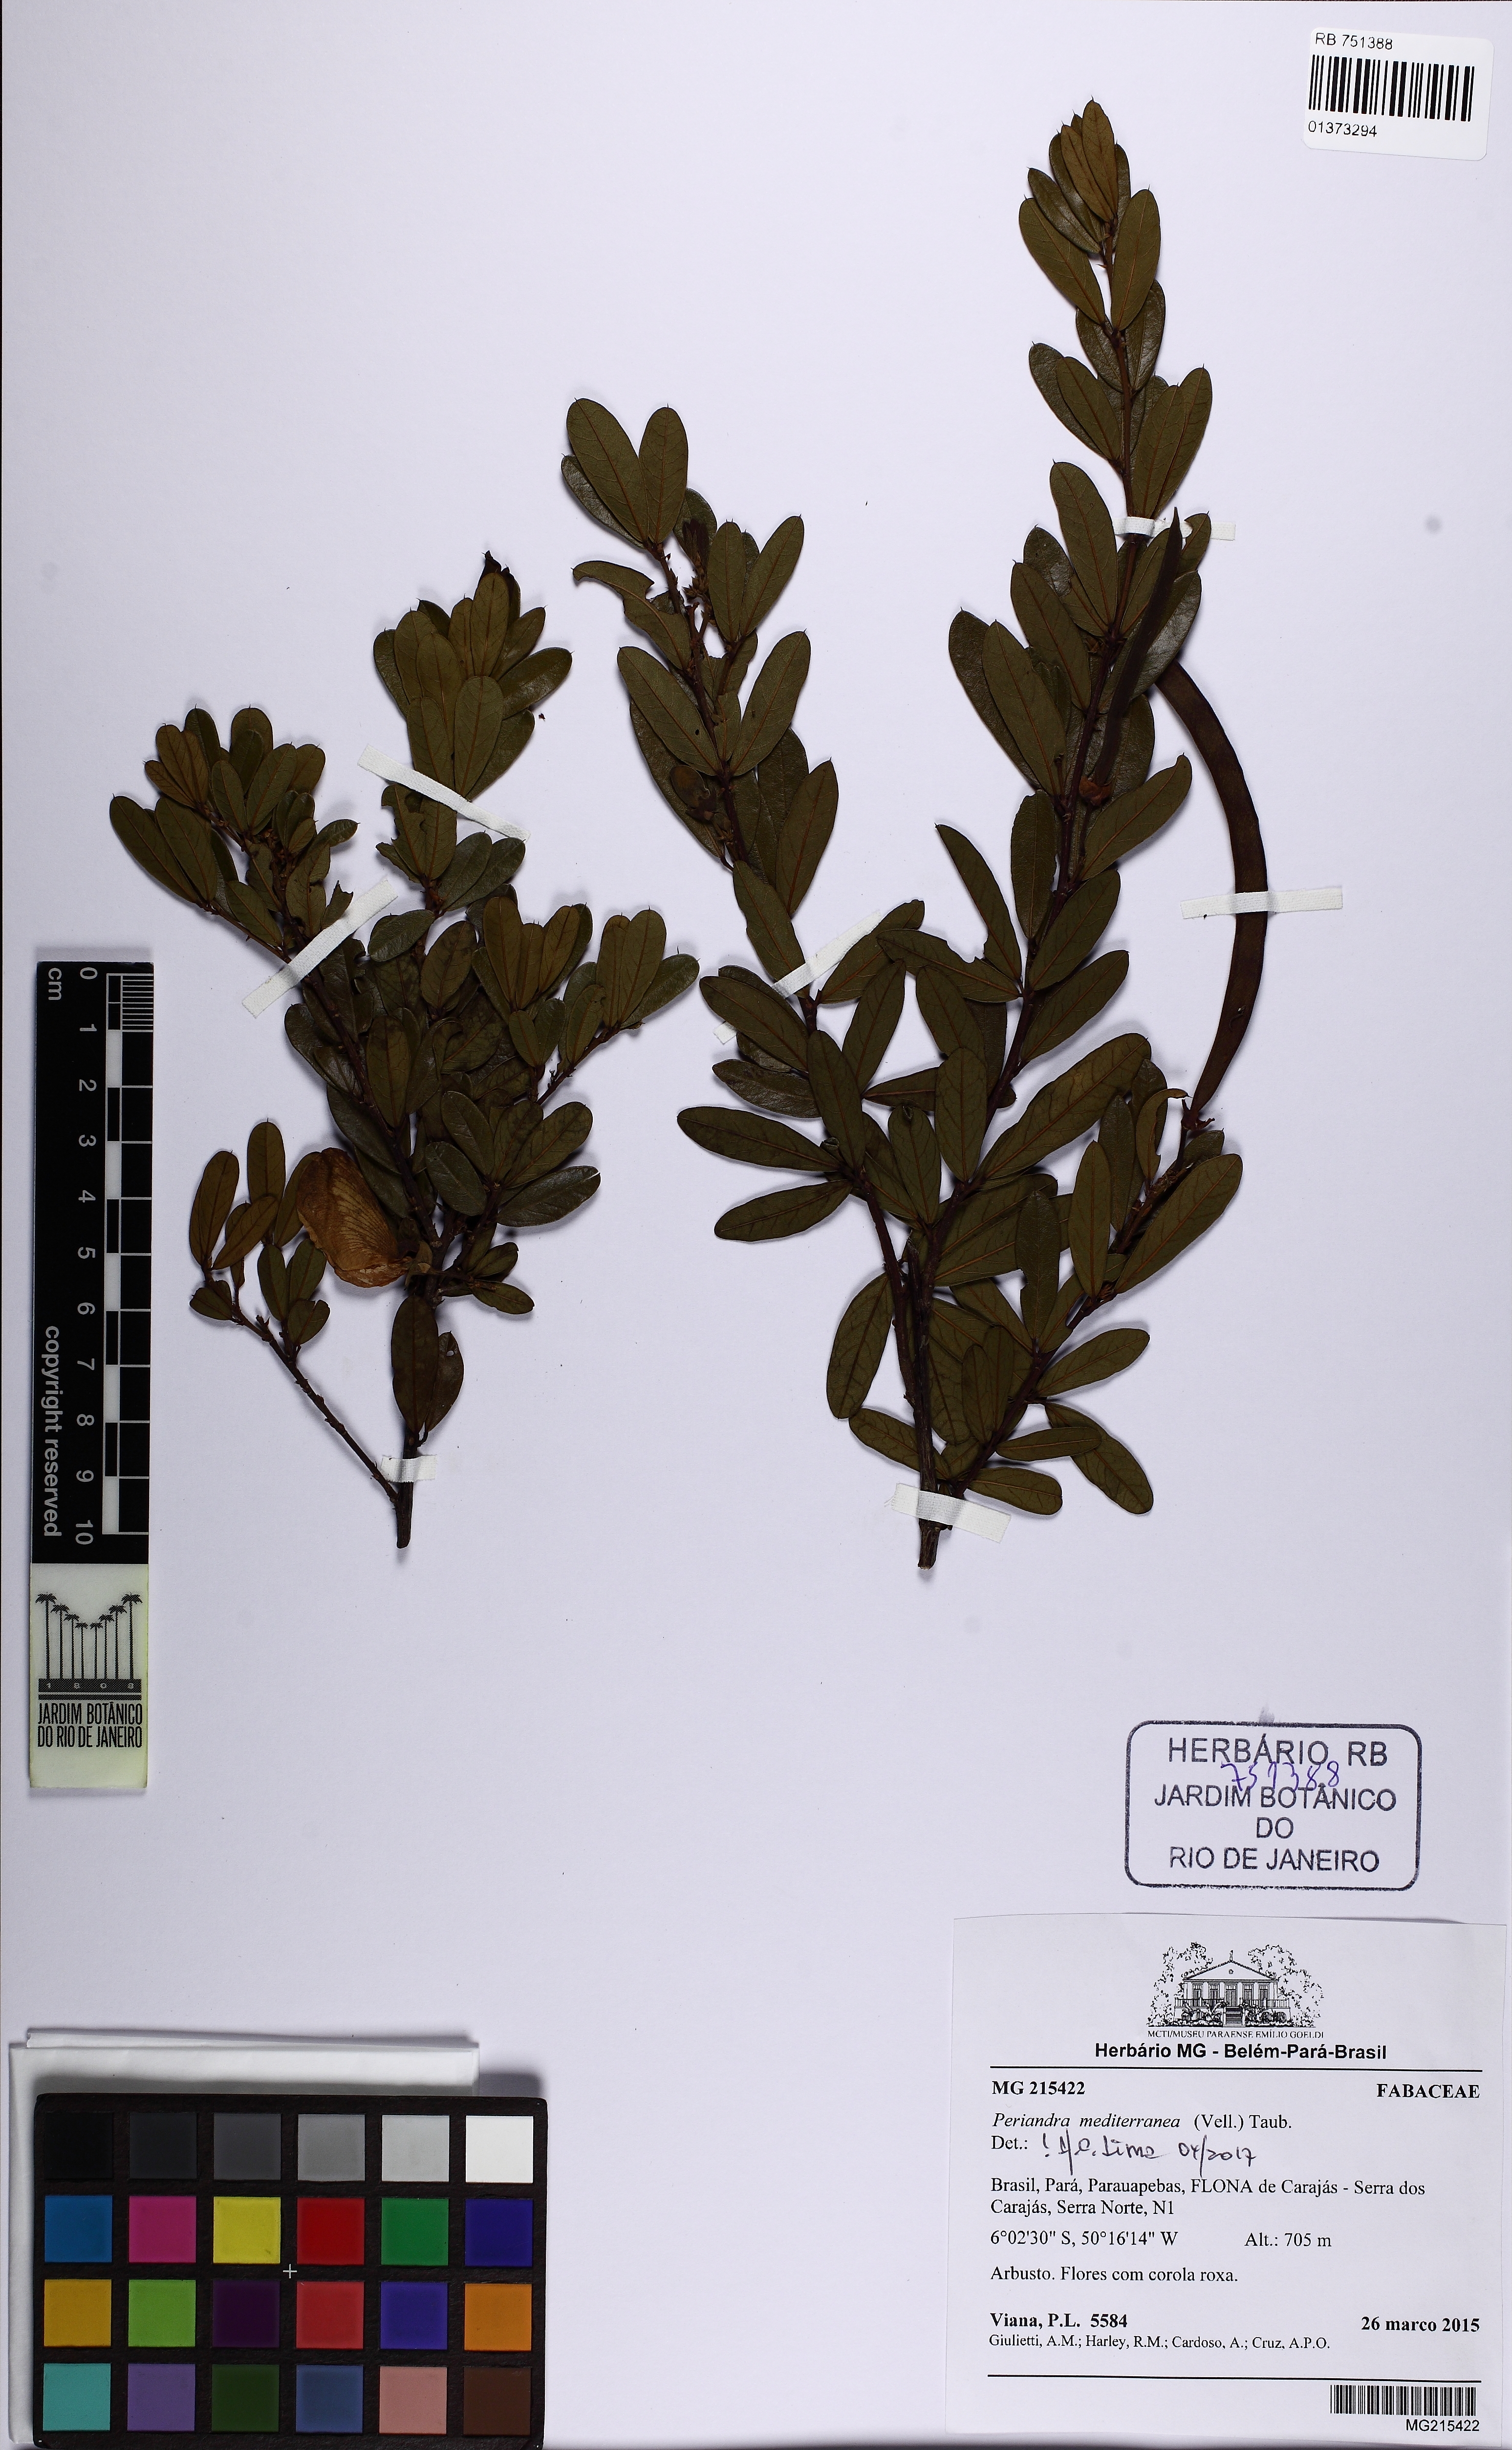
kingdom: Plantae
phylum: Tracheophyta
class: Magnoliopsida
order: Fabales
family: Fabaceae
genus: Periandra
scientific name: Periandra mediterranea
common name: Brazilian licorice
